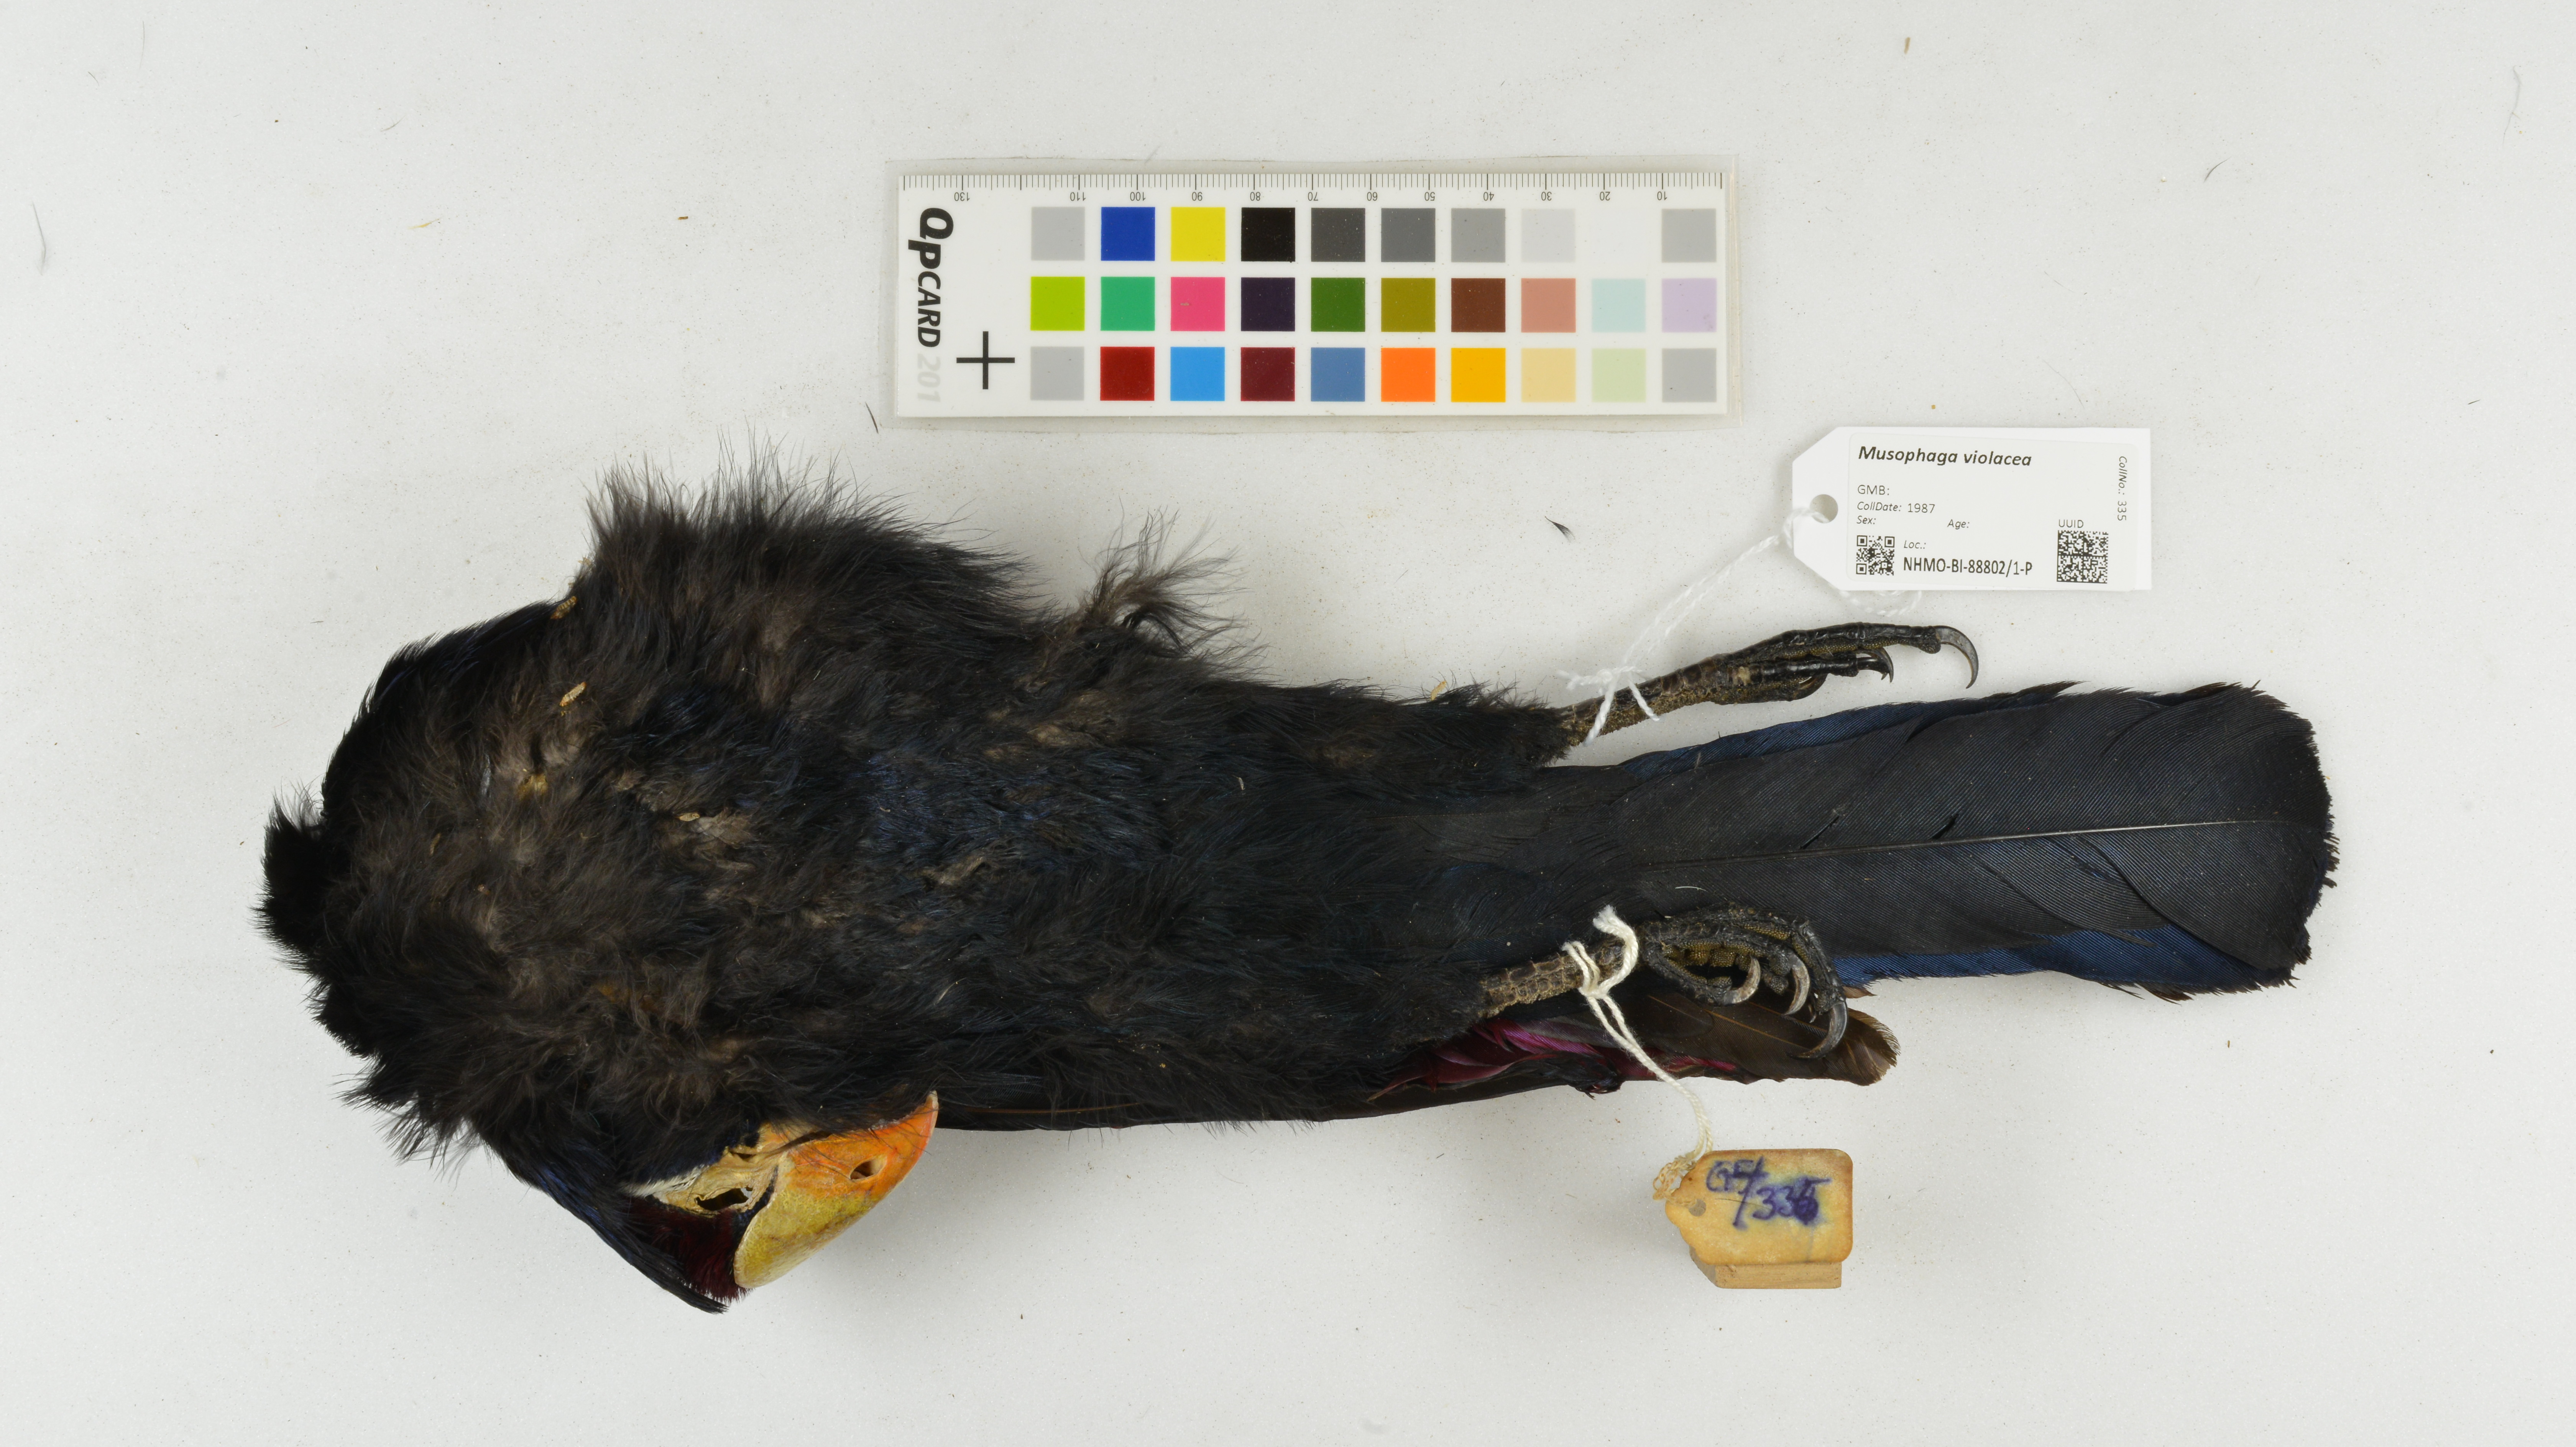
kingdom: Animalia
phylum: Chordata
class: Aves
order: Musophagiformes
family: Musophagidae
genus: Musophaga
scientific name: Musophaga violacea
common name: Violet turaco
